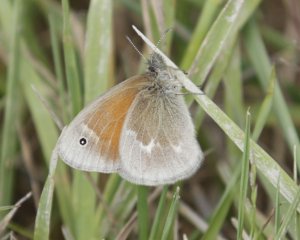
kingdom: Animalia
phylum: Arthropoda
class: Insecta
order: Lepidoptera
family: Nymphalidae
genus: Coenonympha
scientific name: Coenonympha tullia
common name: Large Heath
